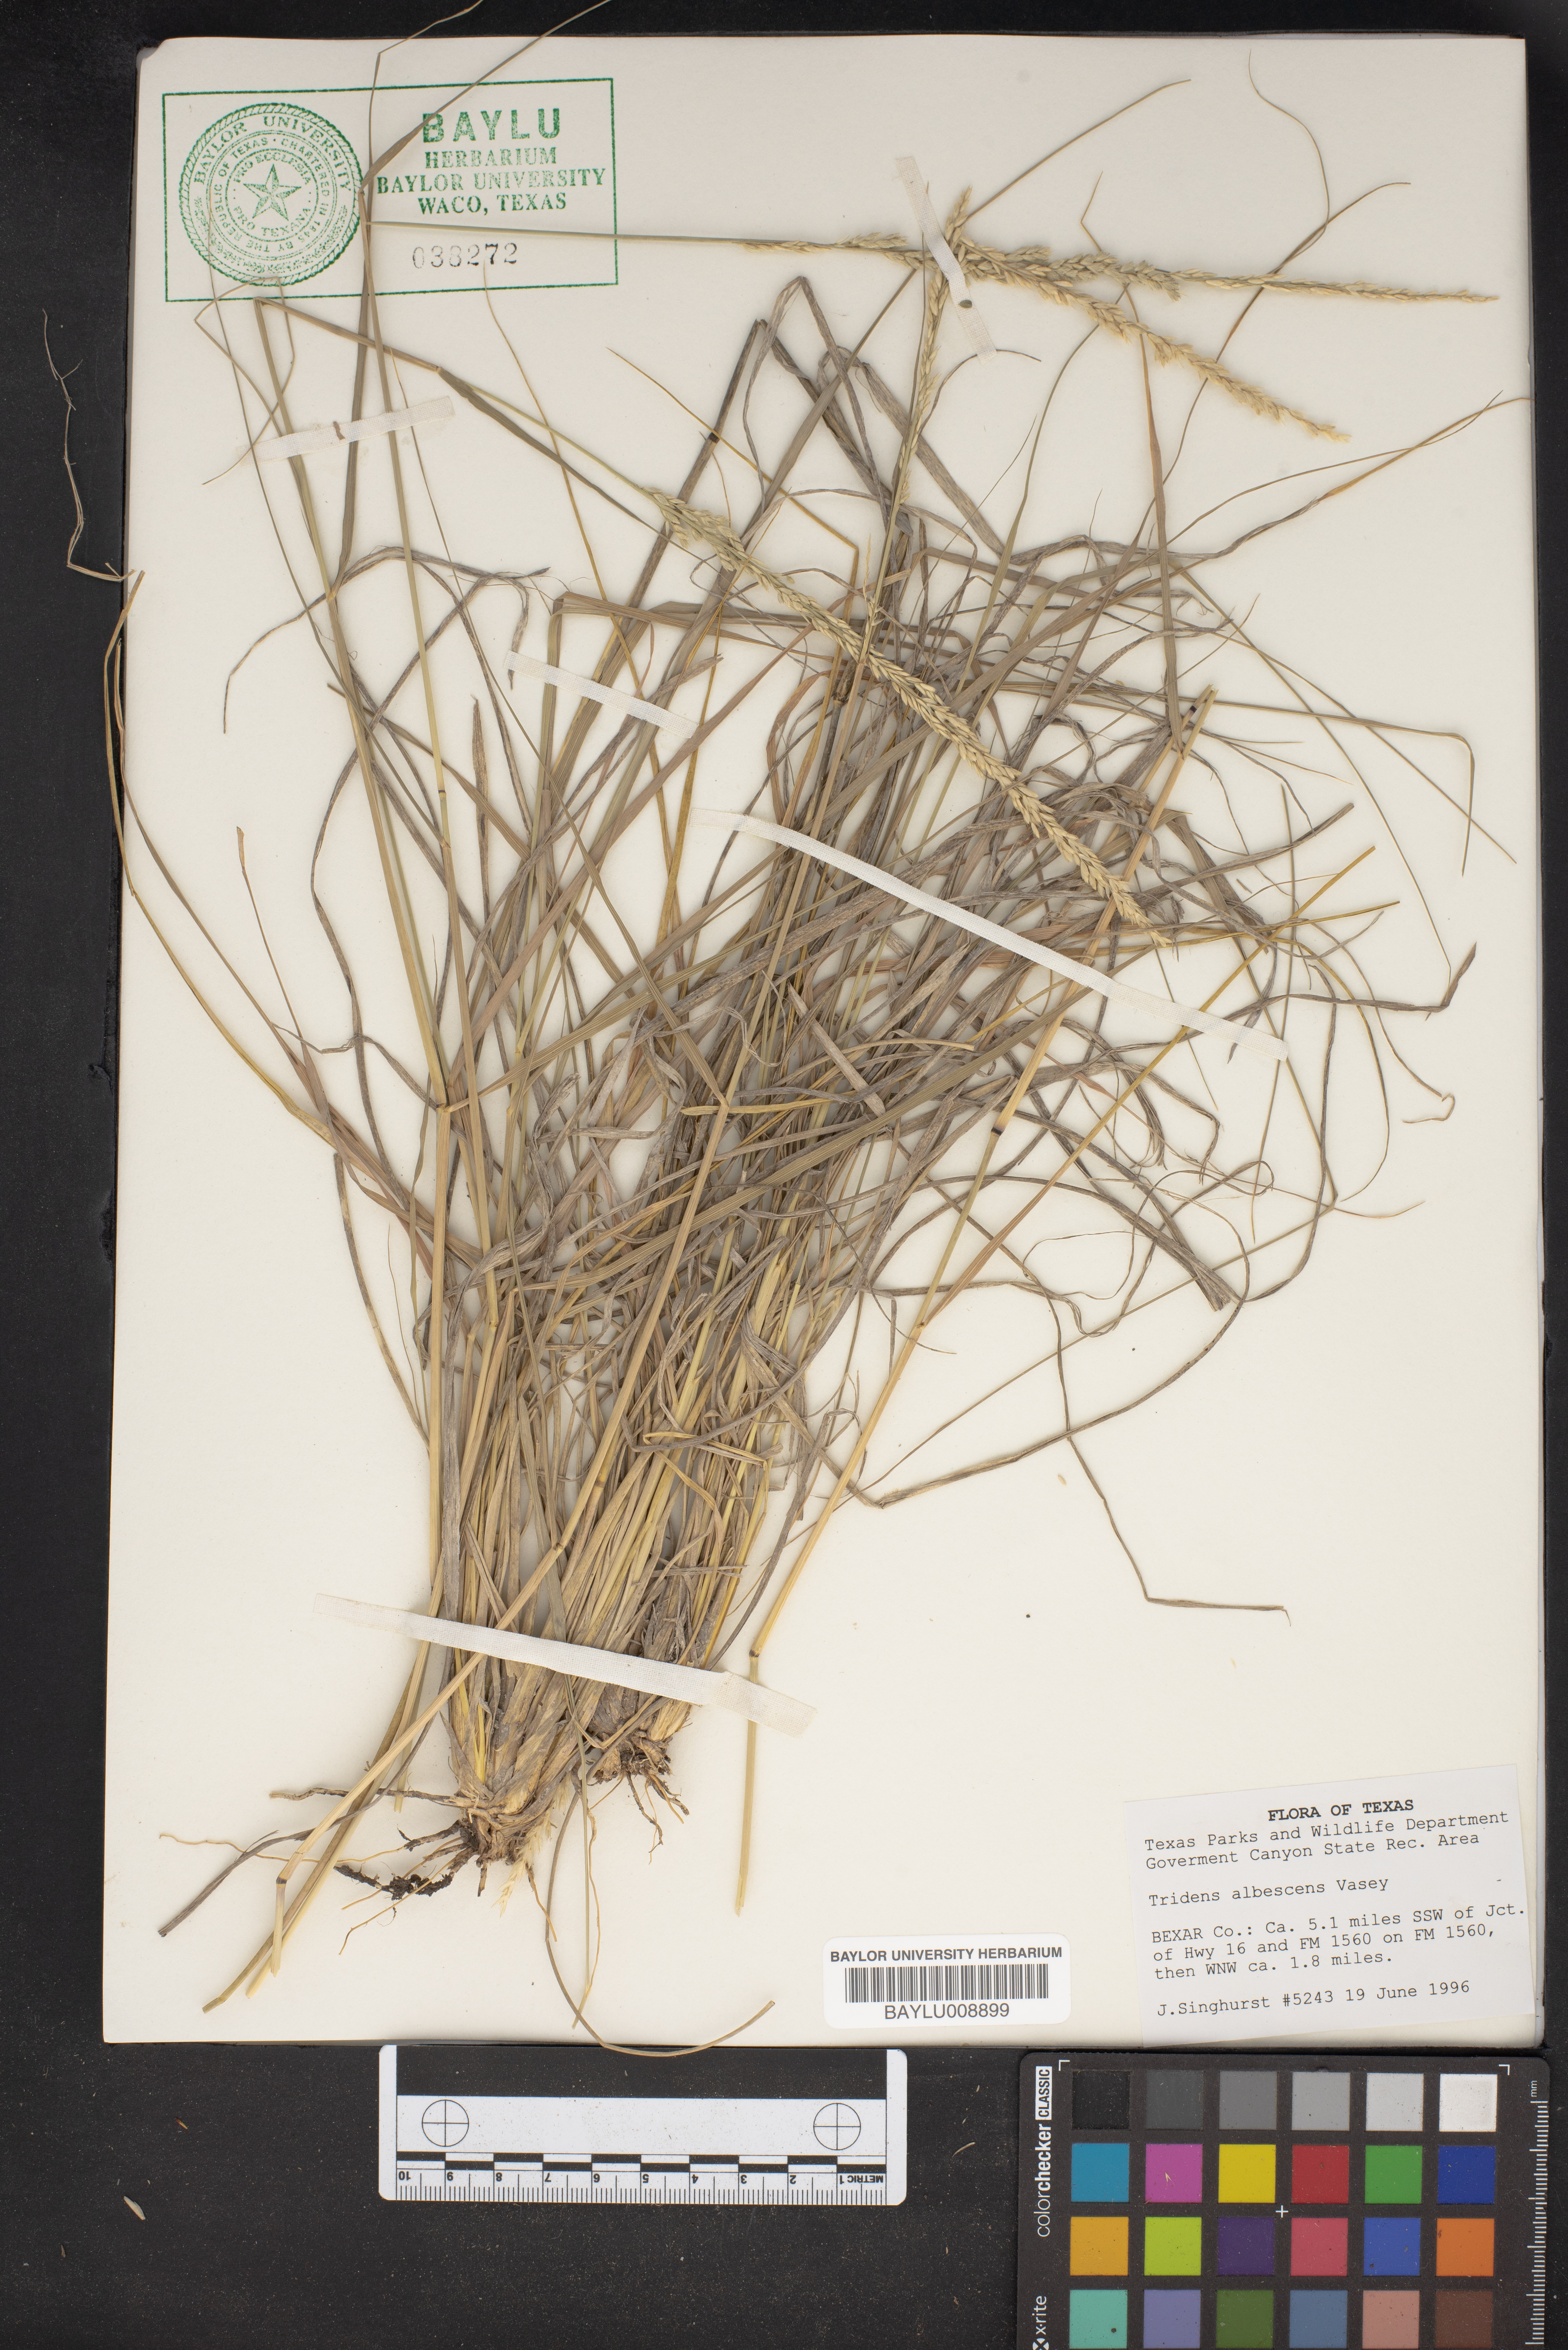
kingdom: Plantae
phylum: Tracheophyta
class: Liliopsida
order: Poales
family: Poaceae
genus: Tridens
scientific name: Tridens albescens
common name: White tridens
